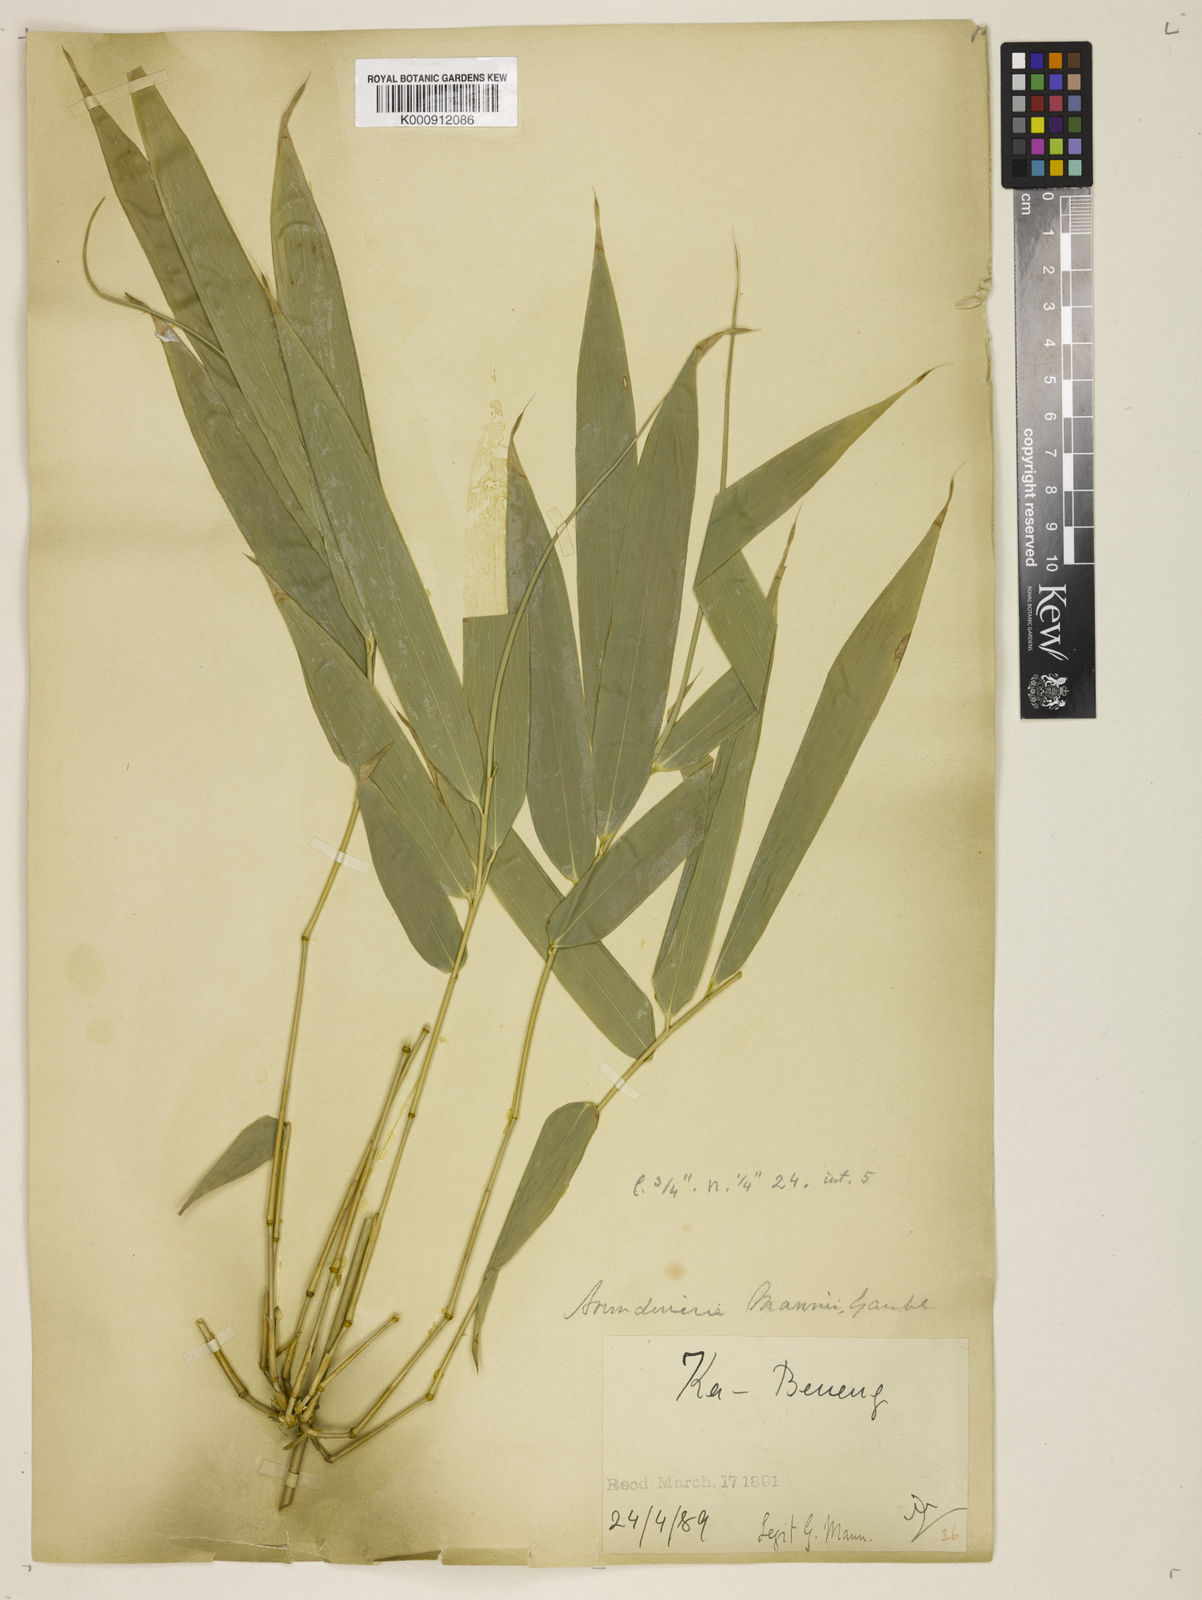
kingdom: Plantae
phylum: Tracheophyta
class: Liliopsida
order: Poales
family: Poaceae
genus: Cephalostachyum
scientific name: Cephalostachyum mannii
